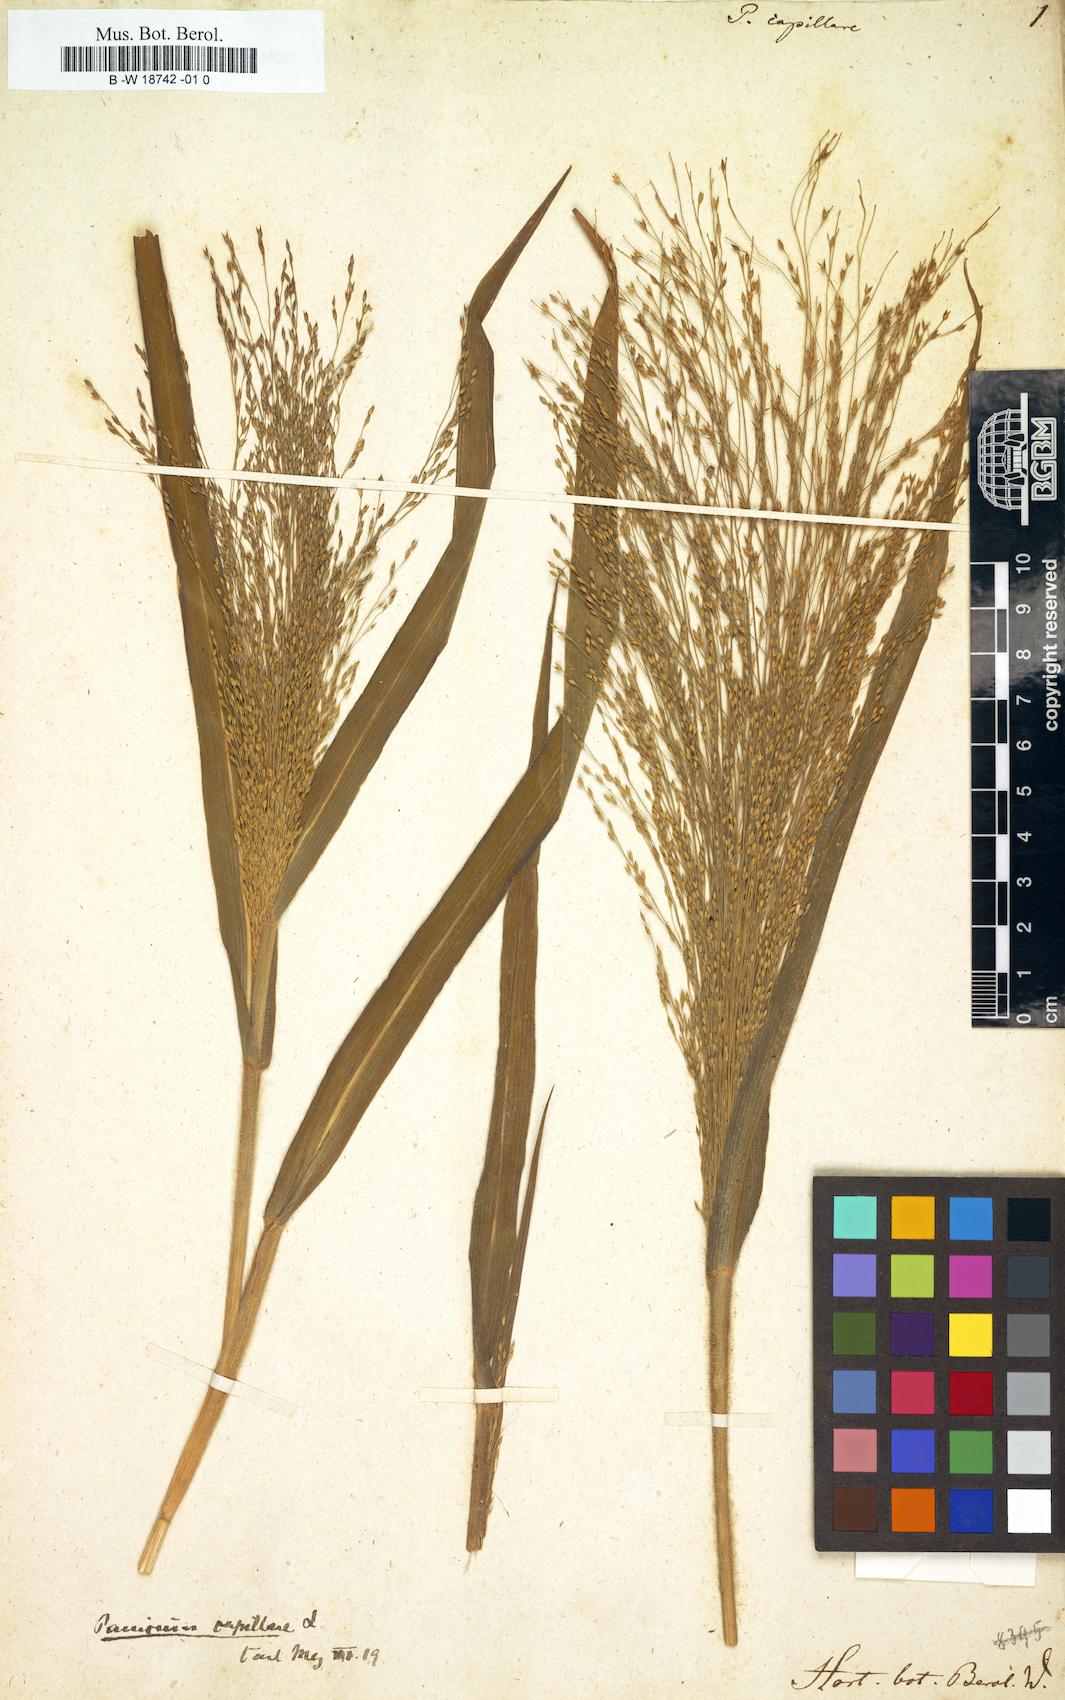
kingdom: Plantae
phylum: Tracheophyta
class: Liliopsida
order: Poales
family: Poaceae
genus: Panicum
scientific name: Panicum capillare
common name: Witch-grass
